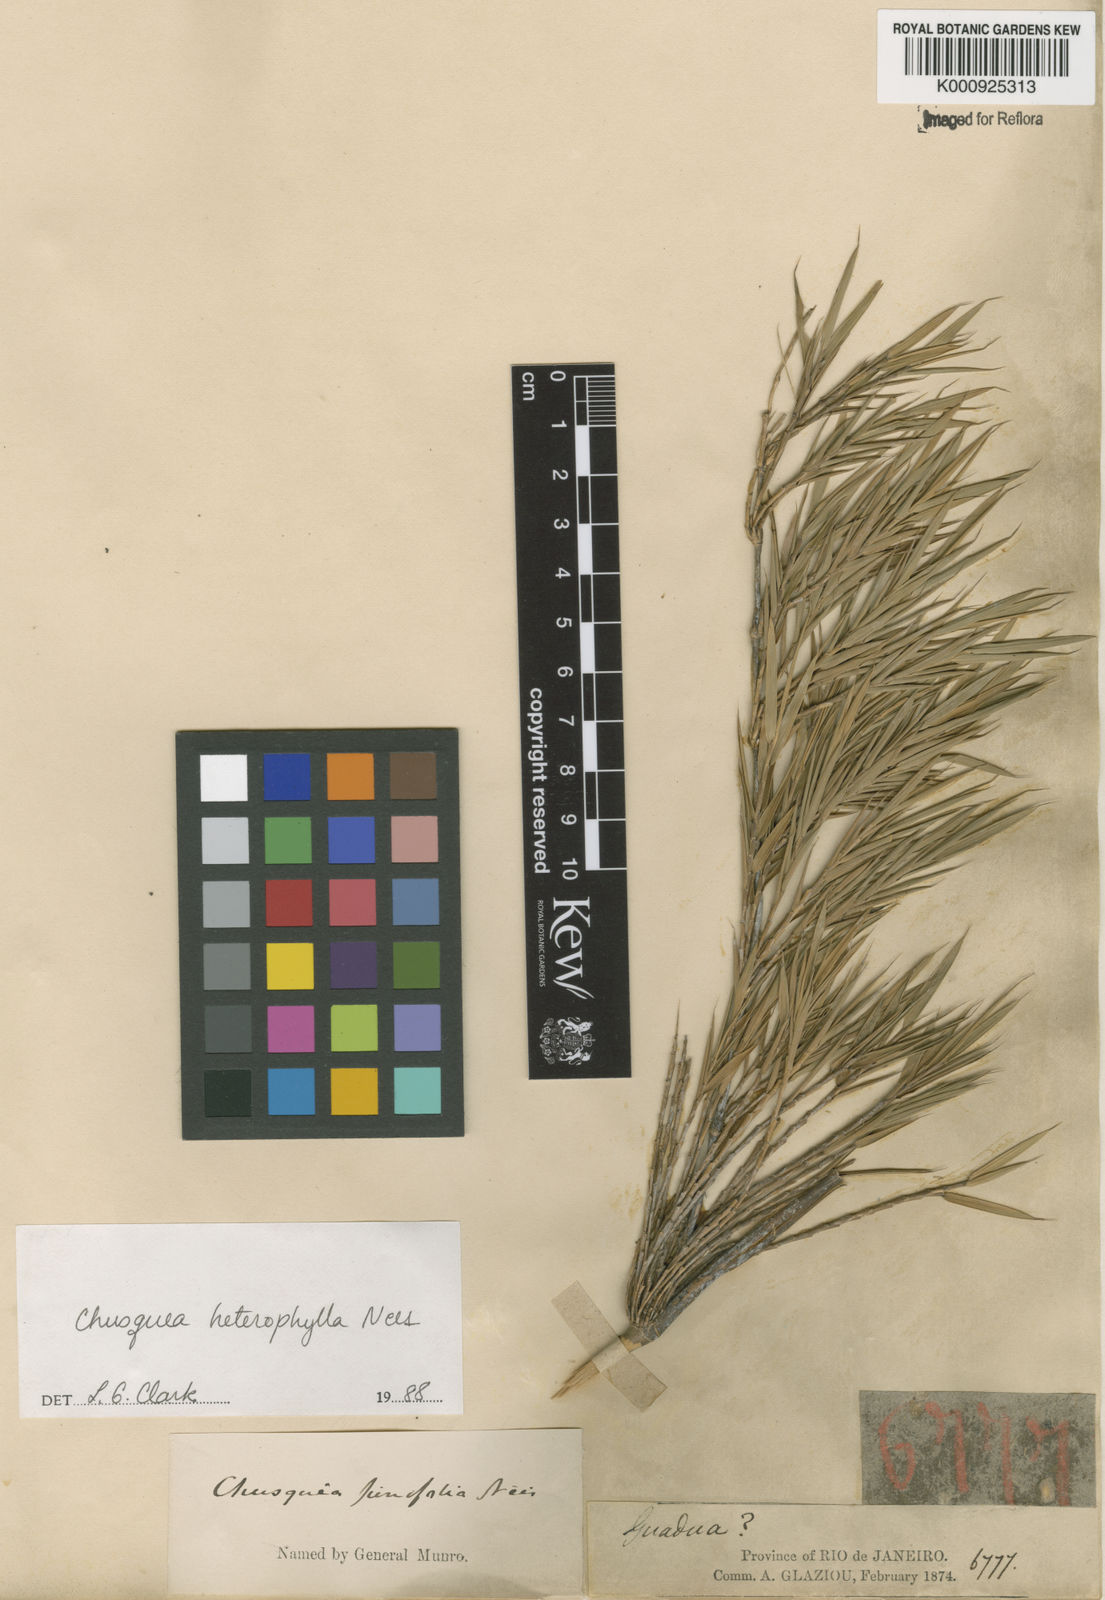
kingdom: Plantae
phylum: Tracheophyta
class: Liliopsida
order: Poales
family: Poaceae
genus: Chusquea
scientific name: Chusquea heterophylla
